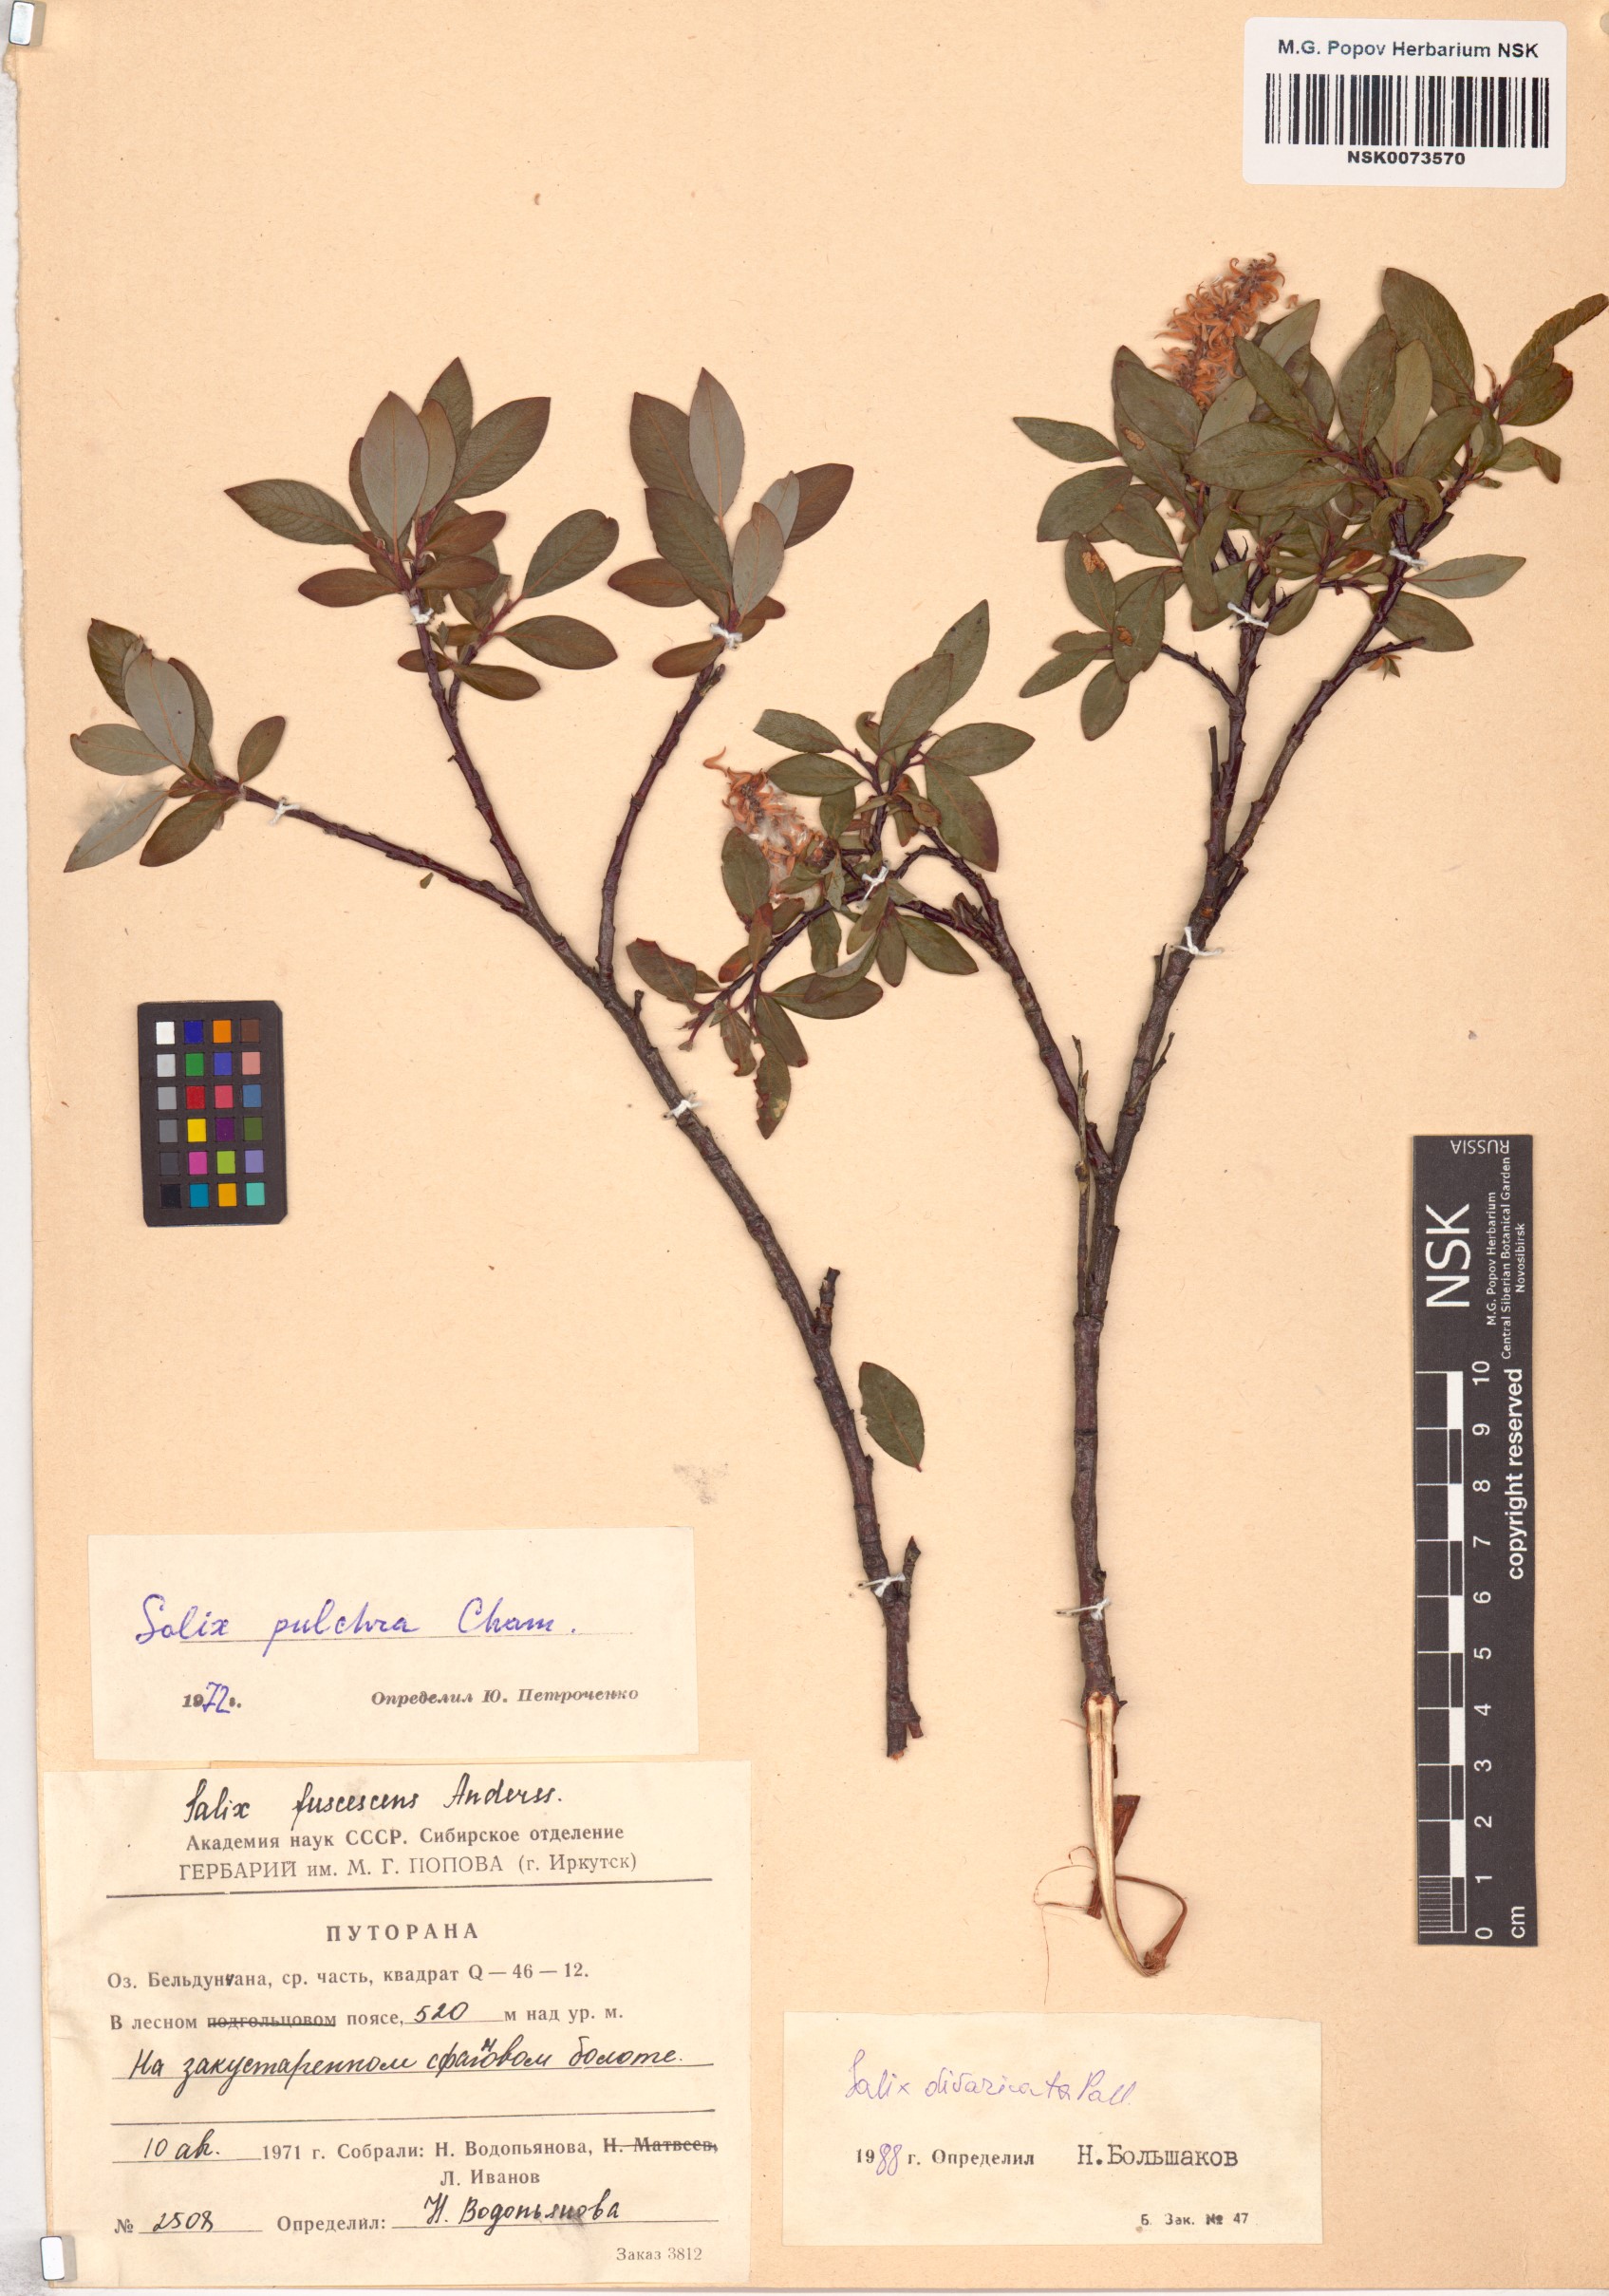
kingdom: Plantae
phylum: Tracheophyta
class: Magnoliopsida
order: Malpighiales
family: Salicaceae
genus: Salix
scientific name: Salix divaricata
